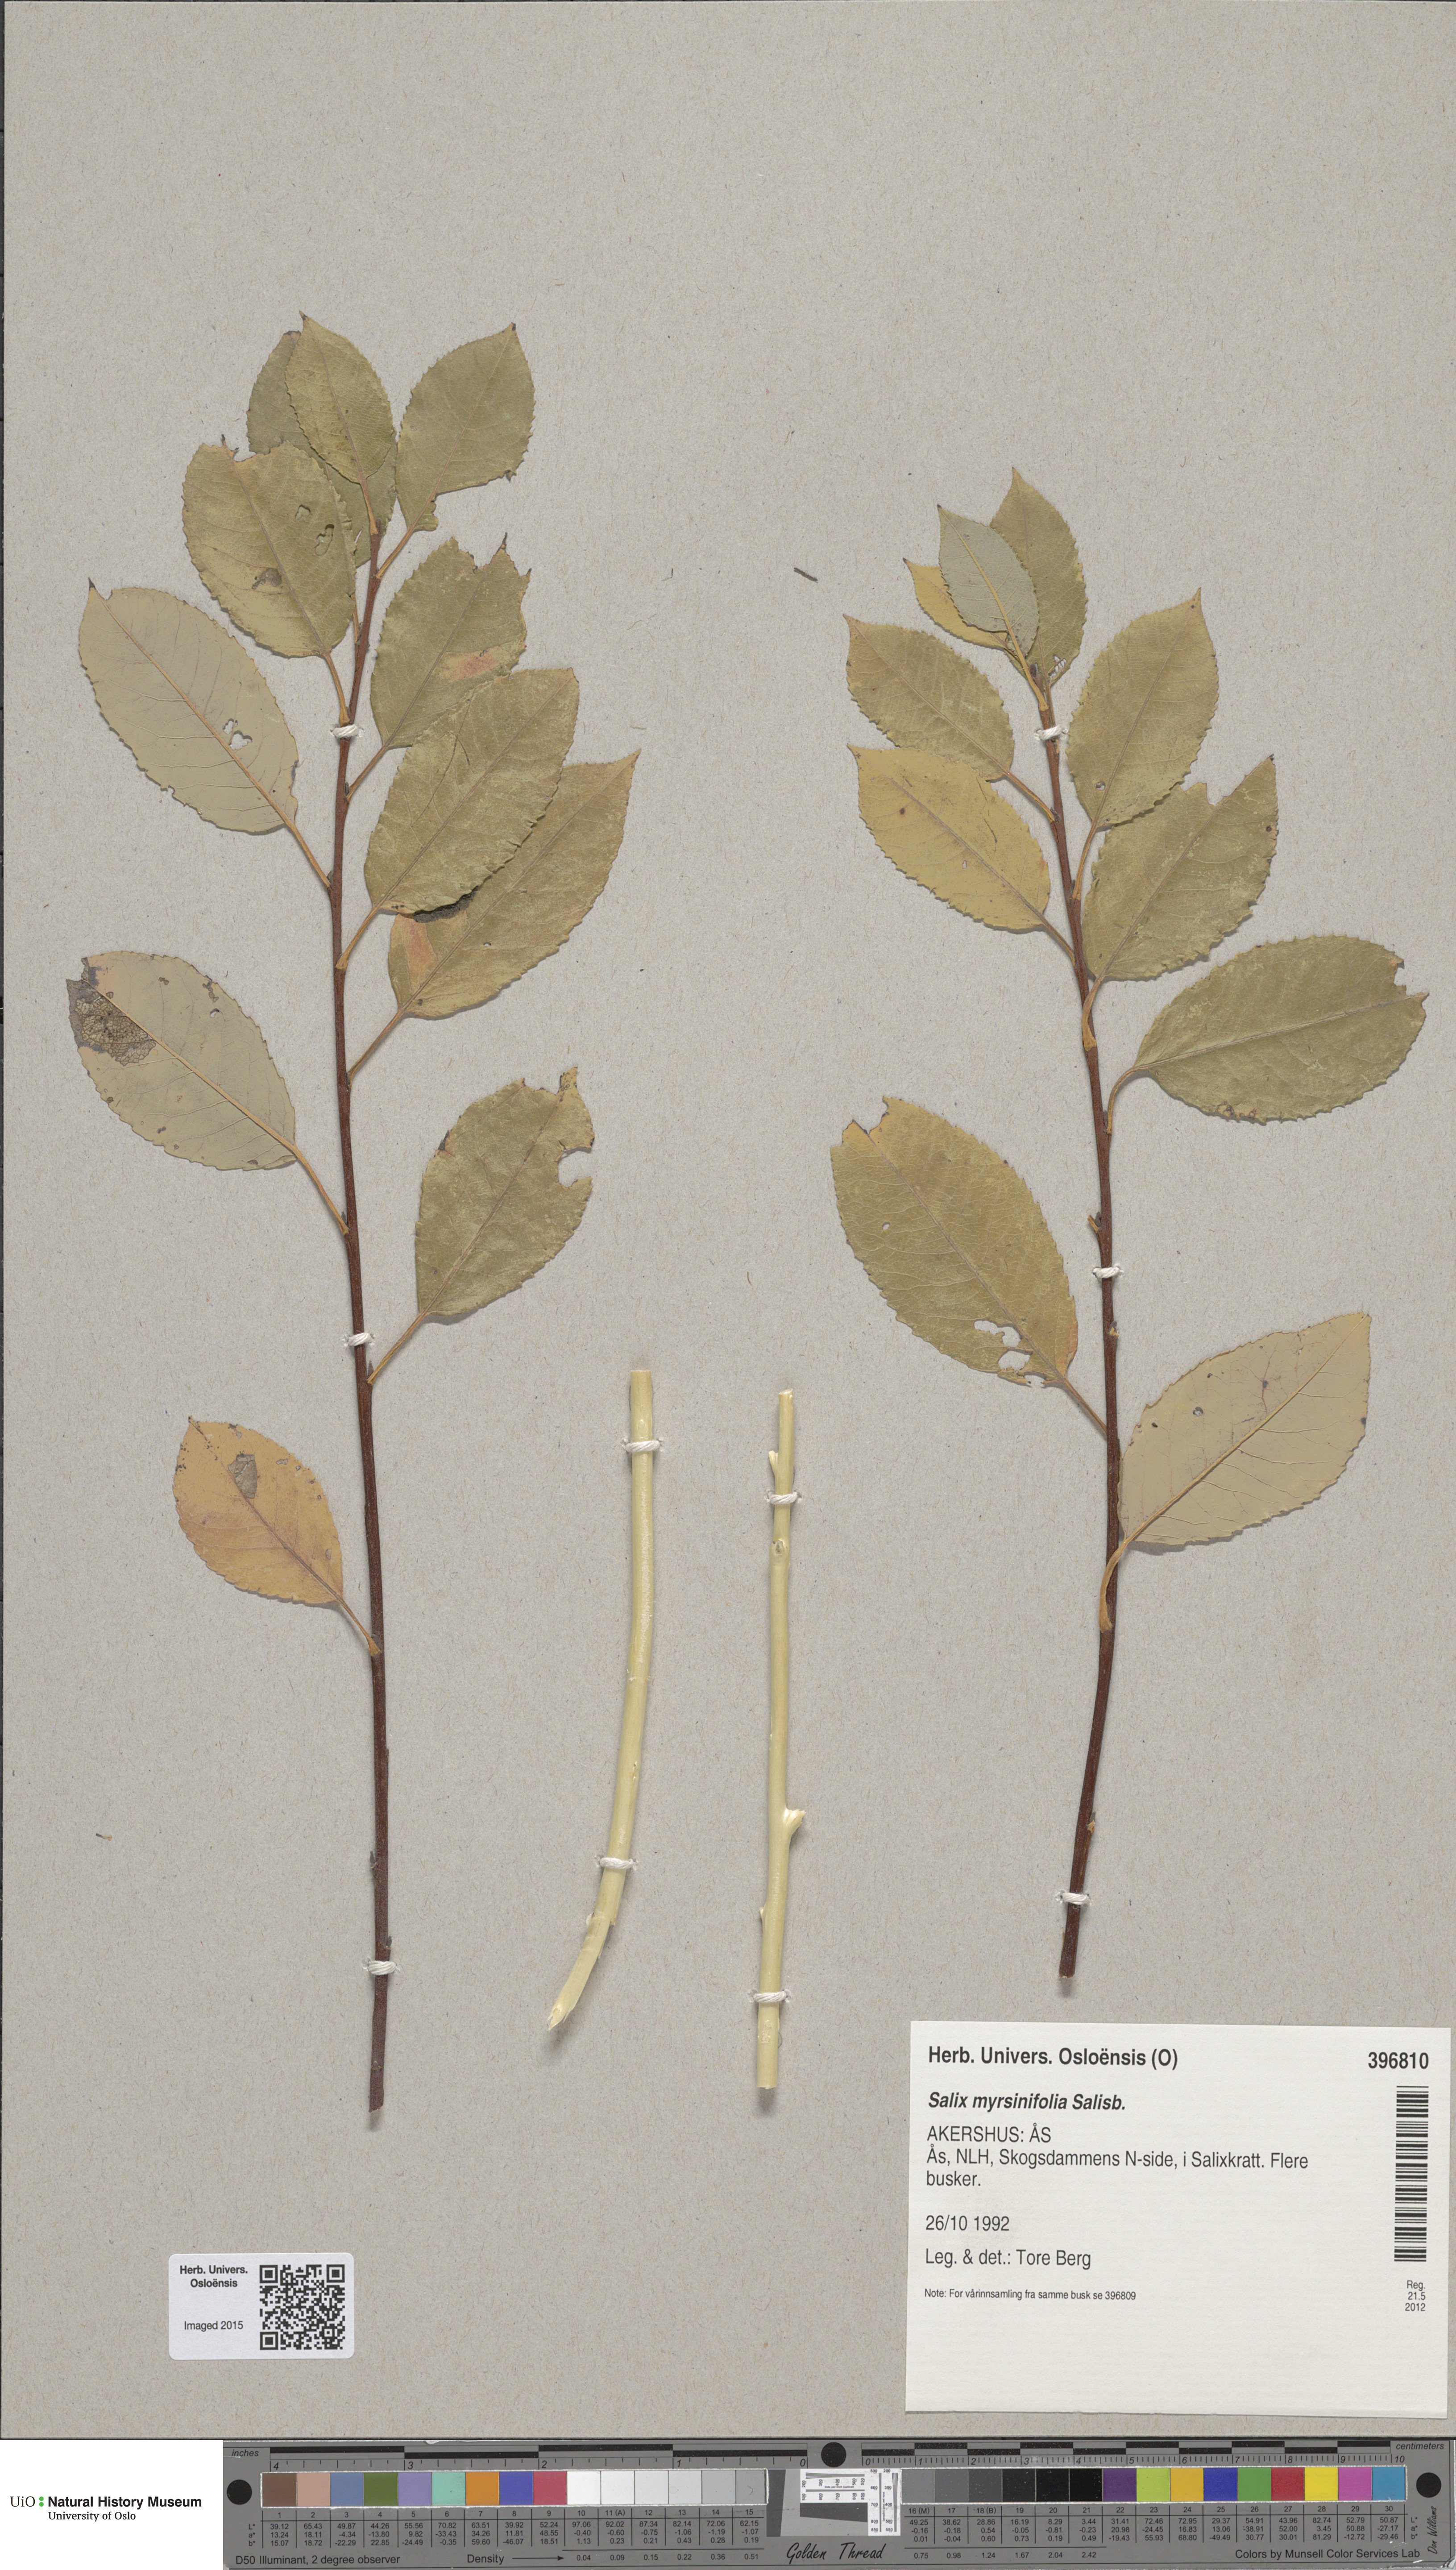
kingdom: Plantae
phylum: Tracheophyta
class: Magnoliopsida
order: Malpighiales
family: Salicaceae
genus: Salix
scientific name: Salix myrsinifolia
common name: Dark-leaved willow
